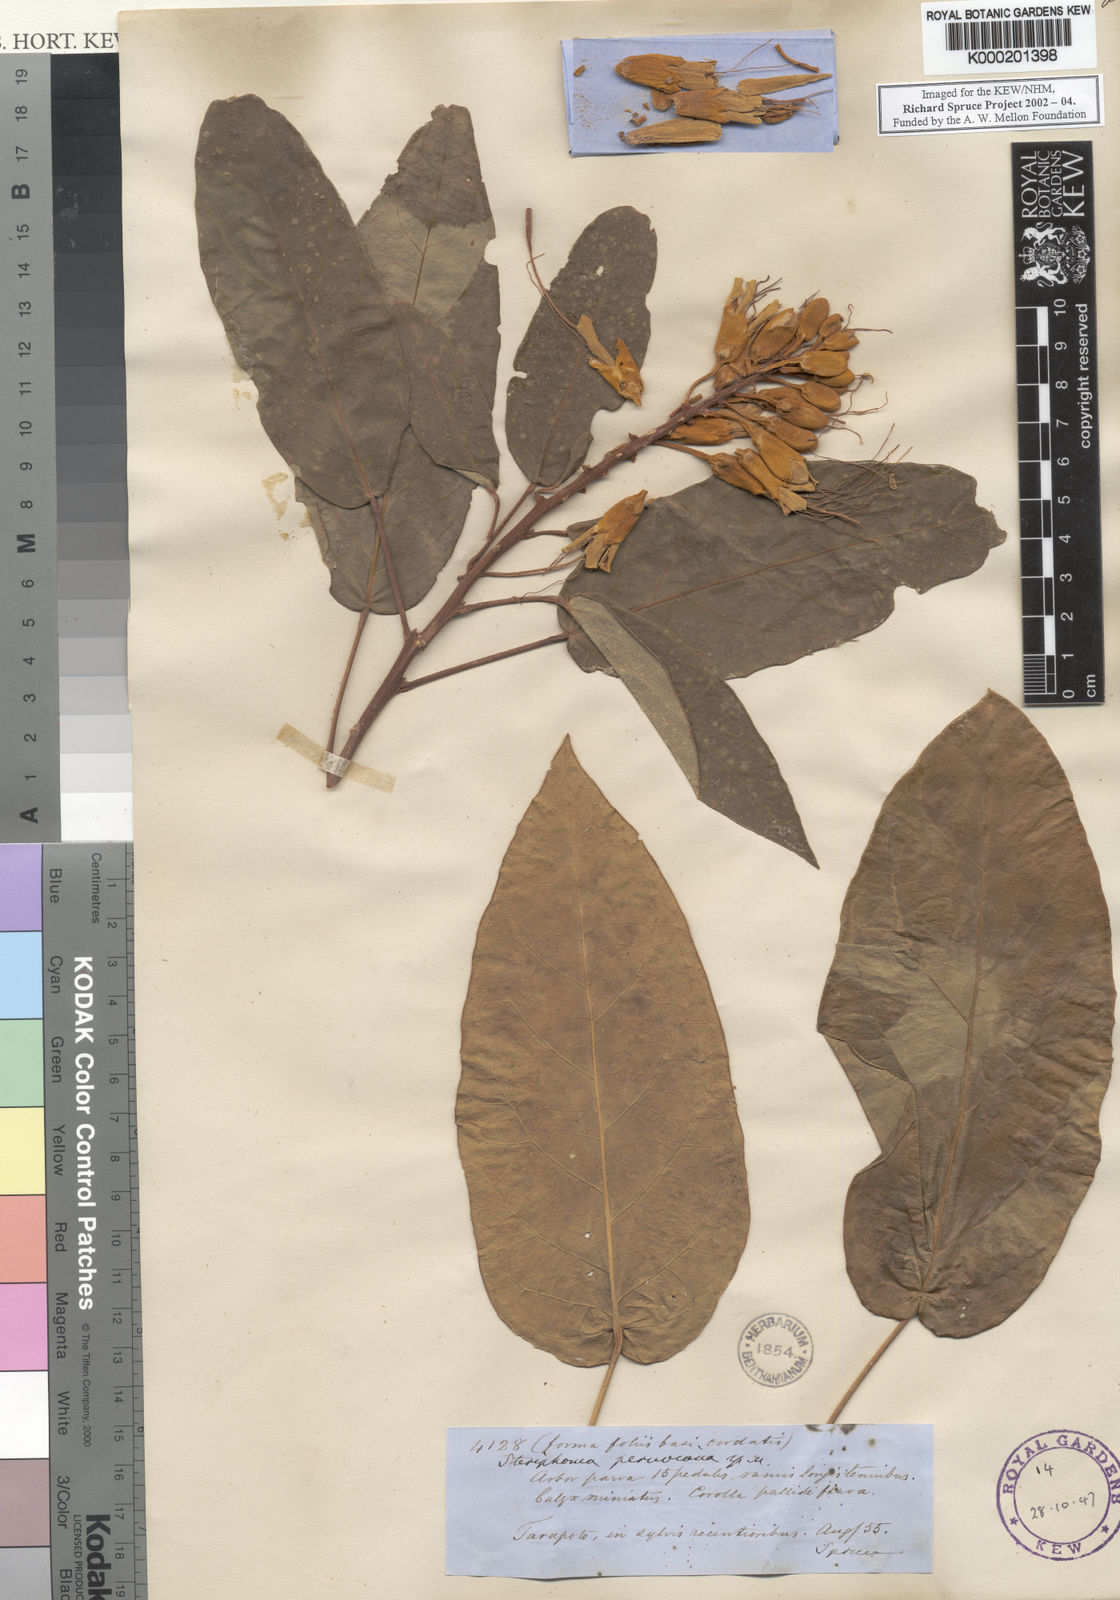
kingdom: Plantae
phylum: Tracheophyta
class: Magnoliopsida
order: Brassicales
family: Capparaceae
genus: Steriphoma
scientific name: Steriphoma peruvianum
